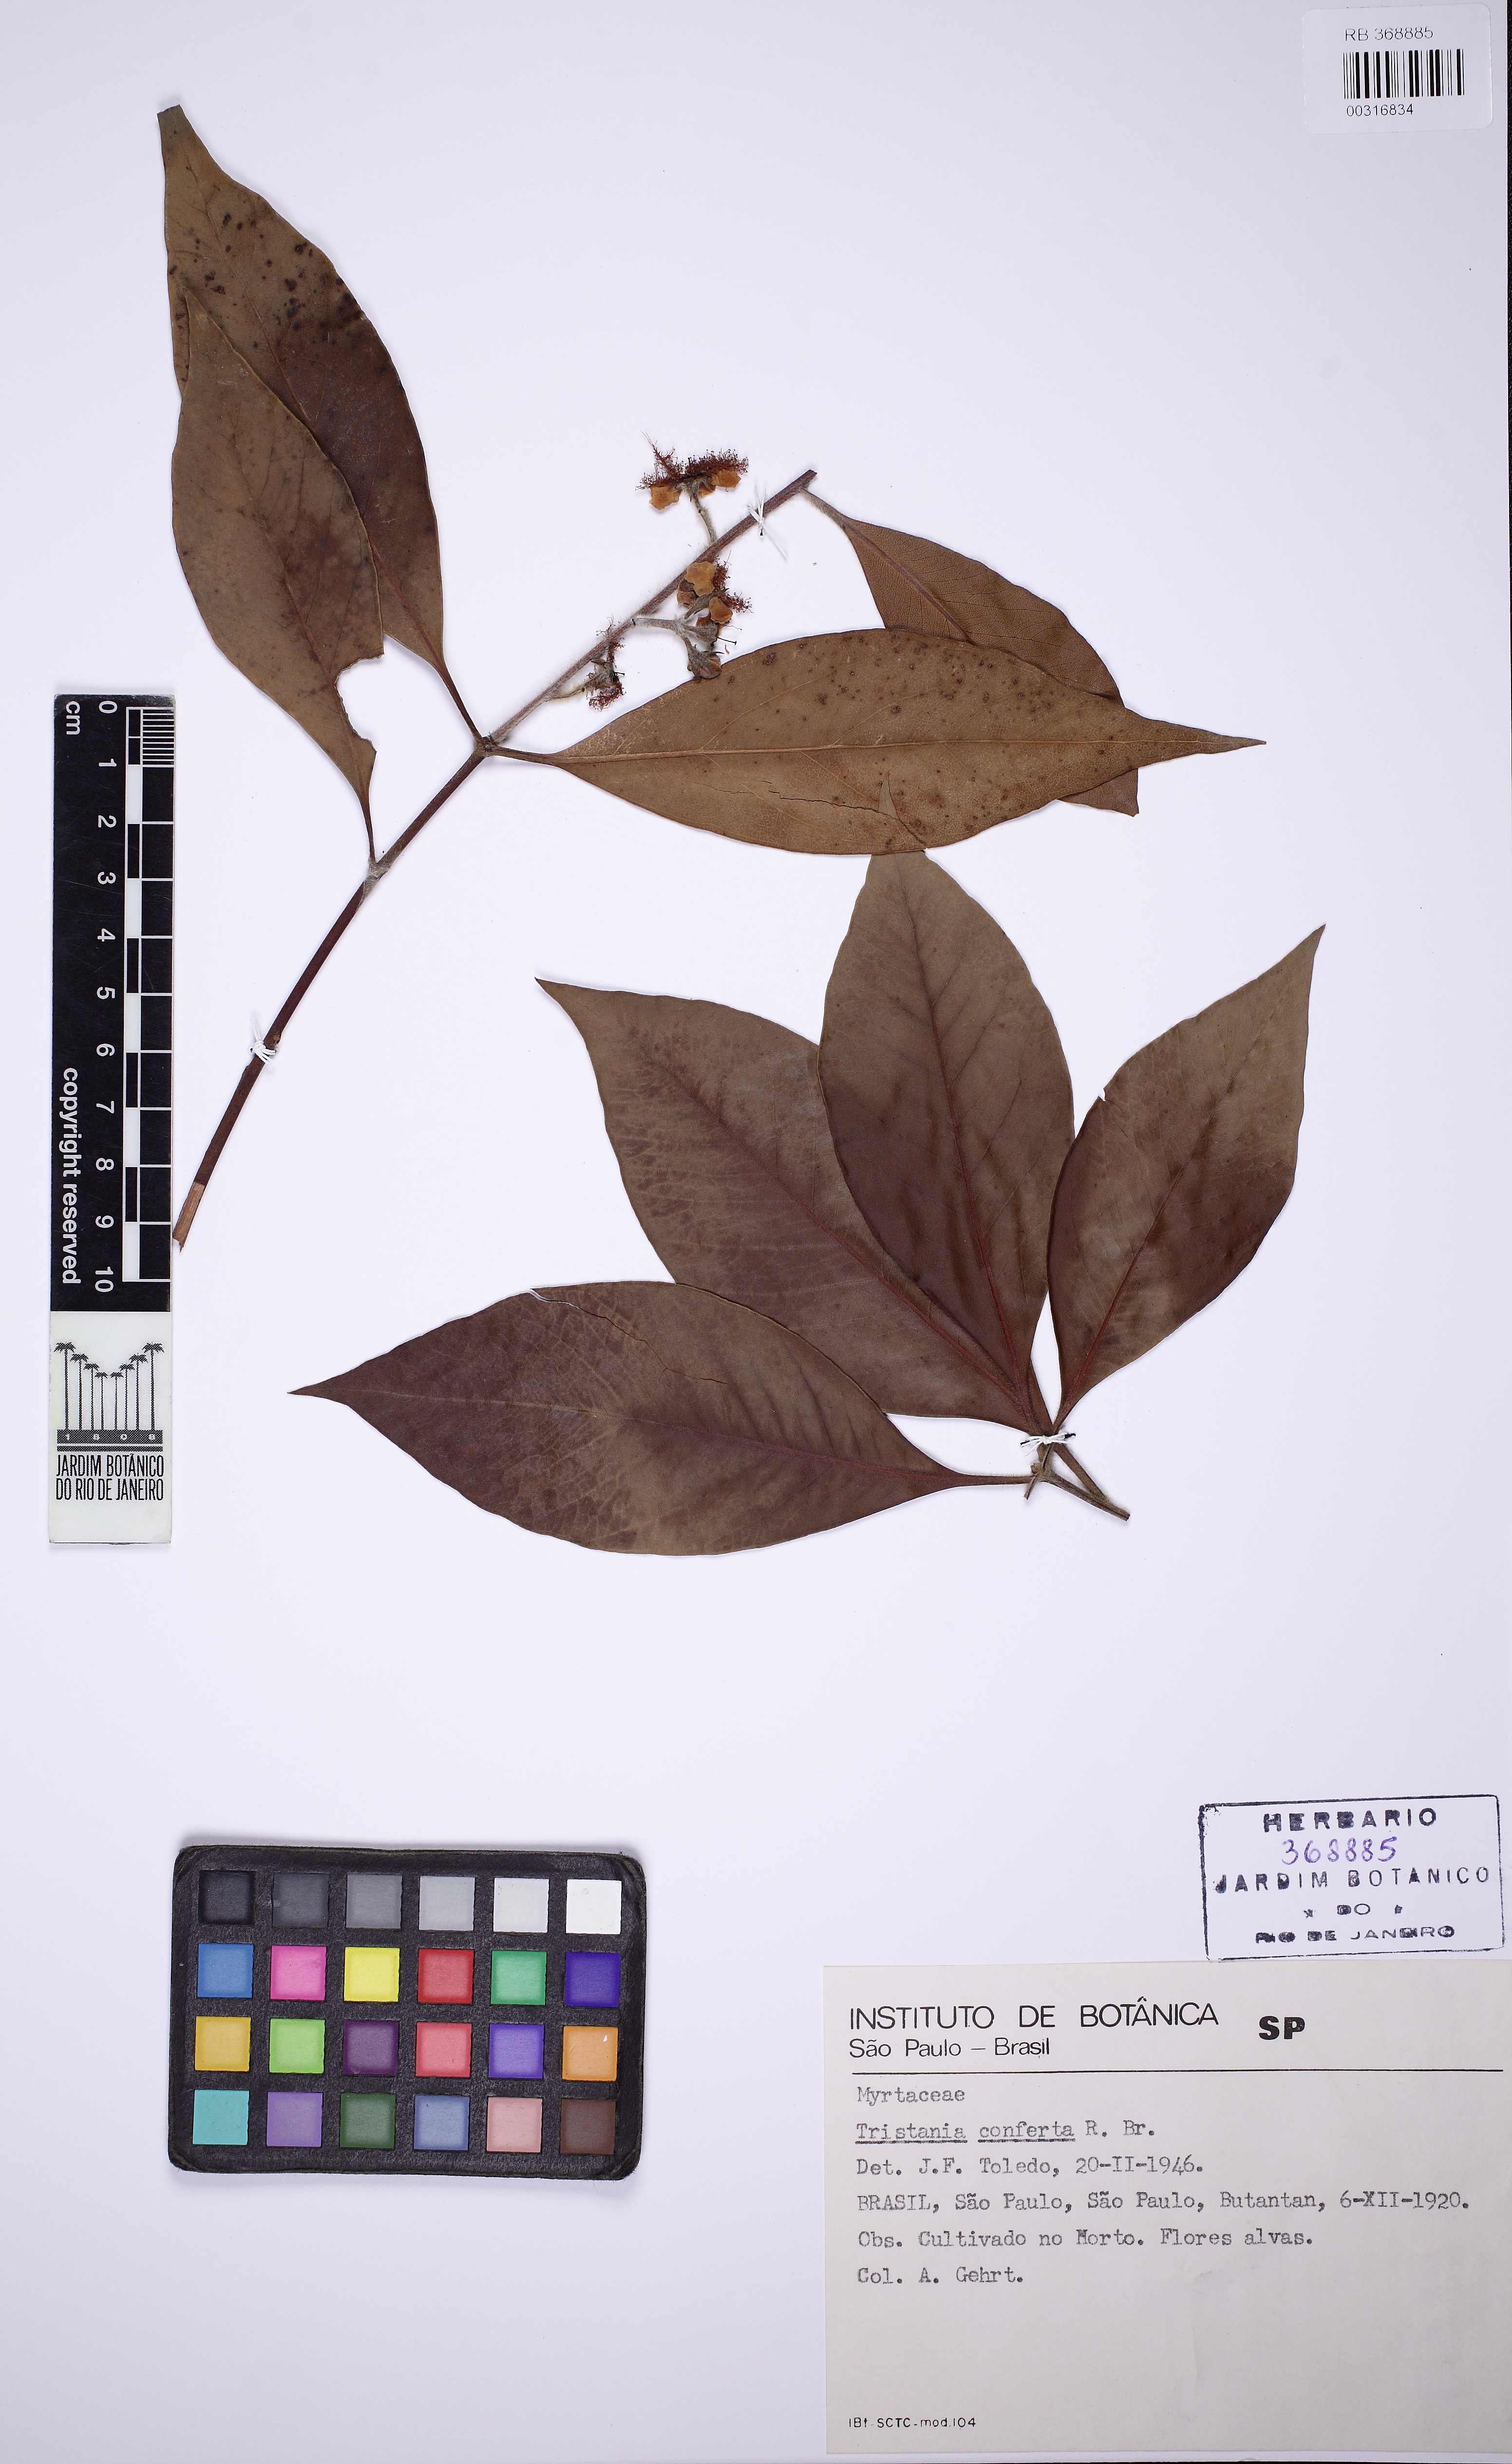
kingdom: Plantae
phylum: Tracheophyta
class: Magnoliopsida
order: Myrtales
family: Myrtaceae
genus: Lophostemon
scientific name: Lophostemon confertus
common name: Brisbane box
